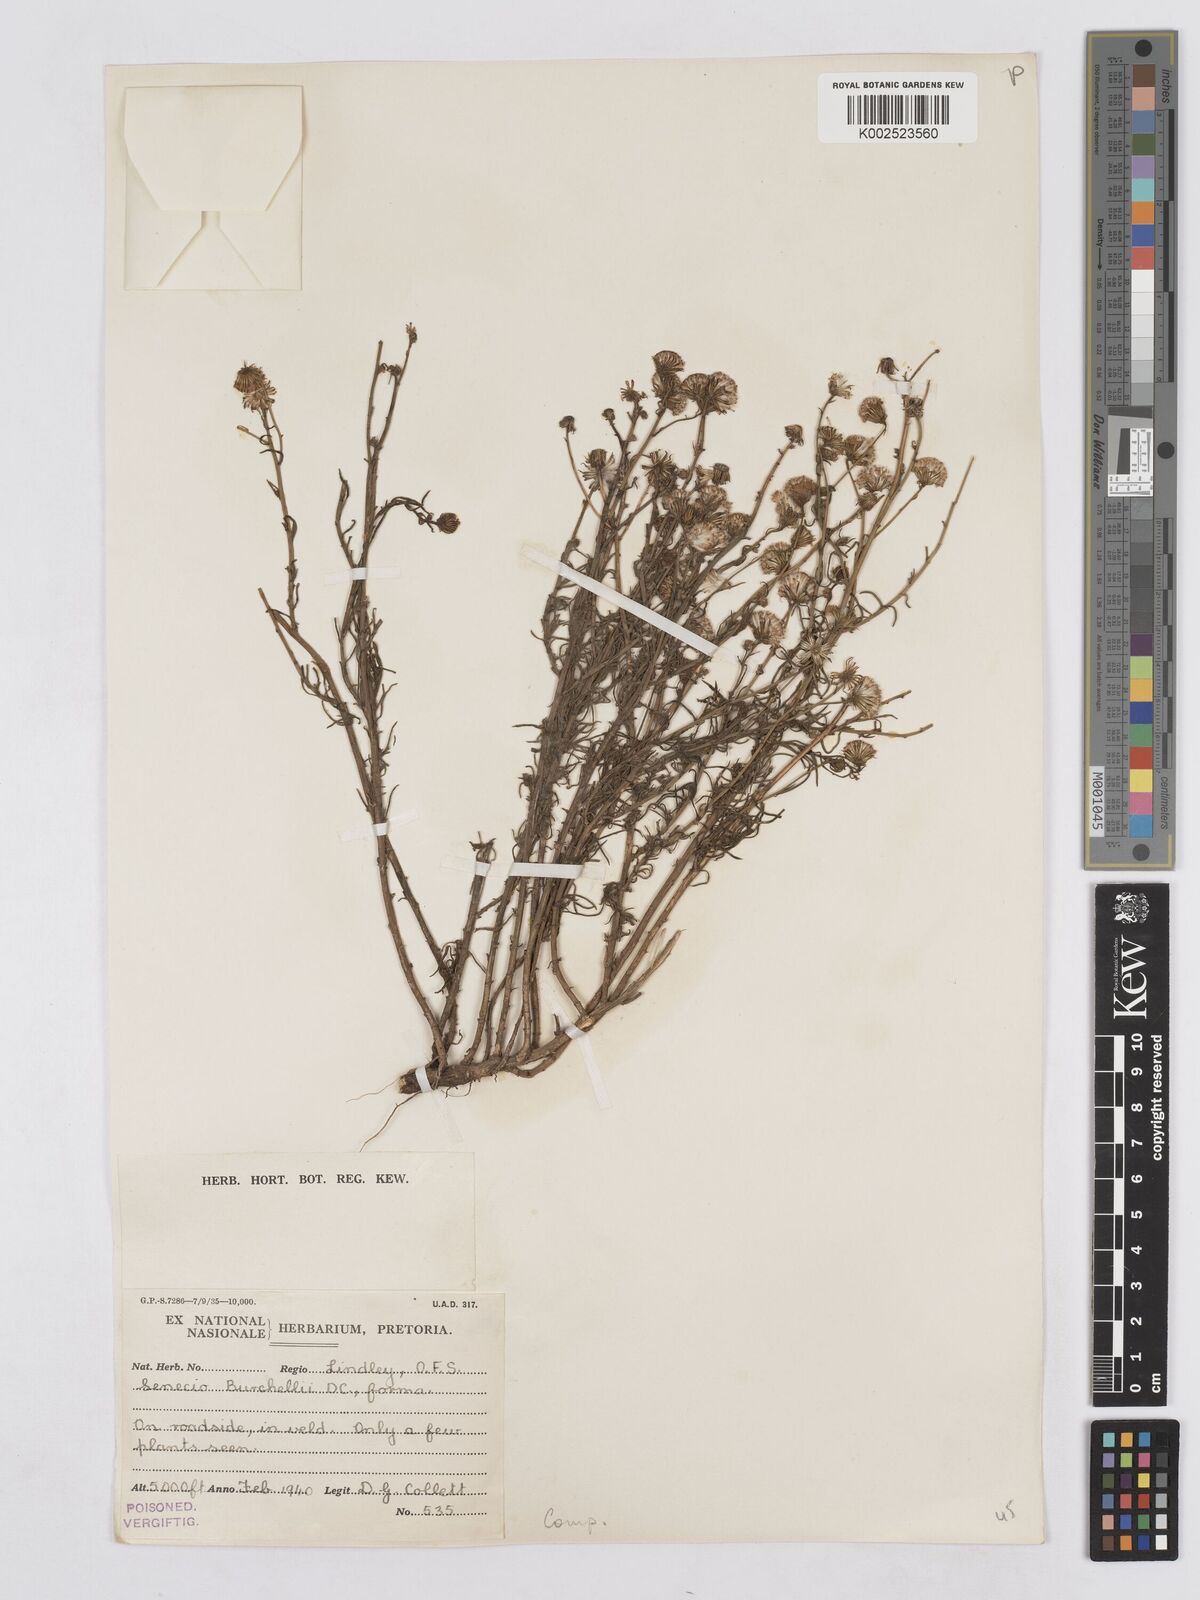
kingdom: Plantae
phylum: Tracheophyta
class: Magnoliopsida
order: Asterales
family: Asteraceae
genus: Senecio
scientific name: Senecio inaequidens
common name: Narrow-leaved ragwort
